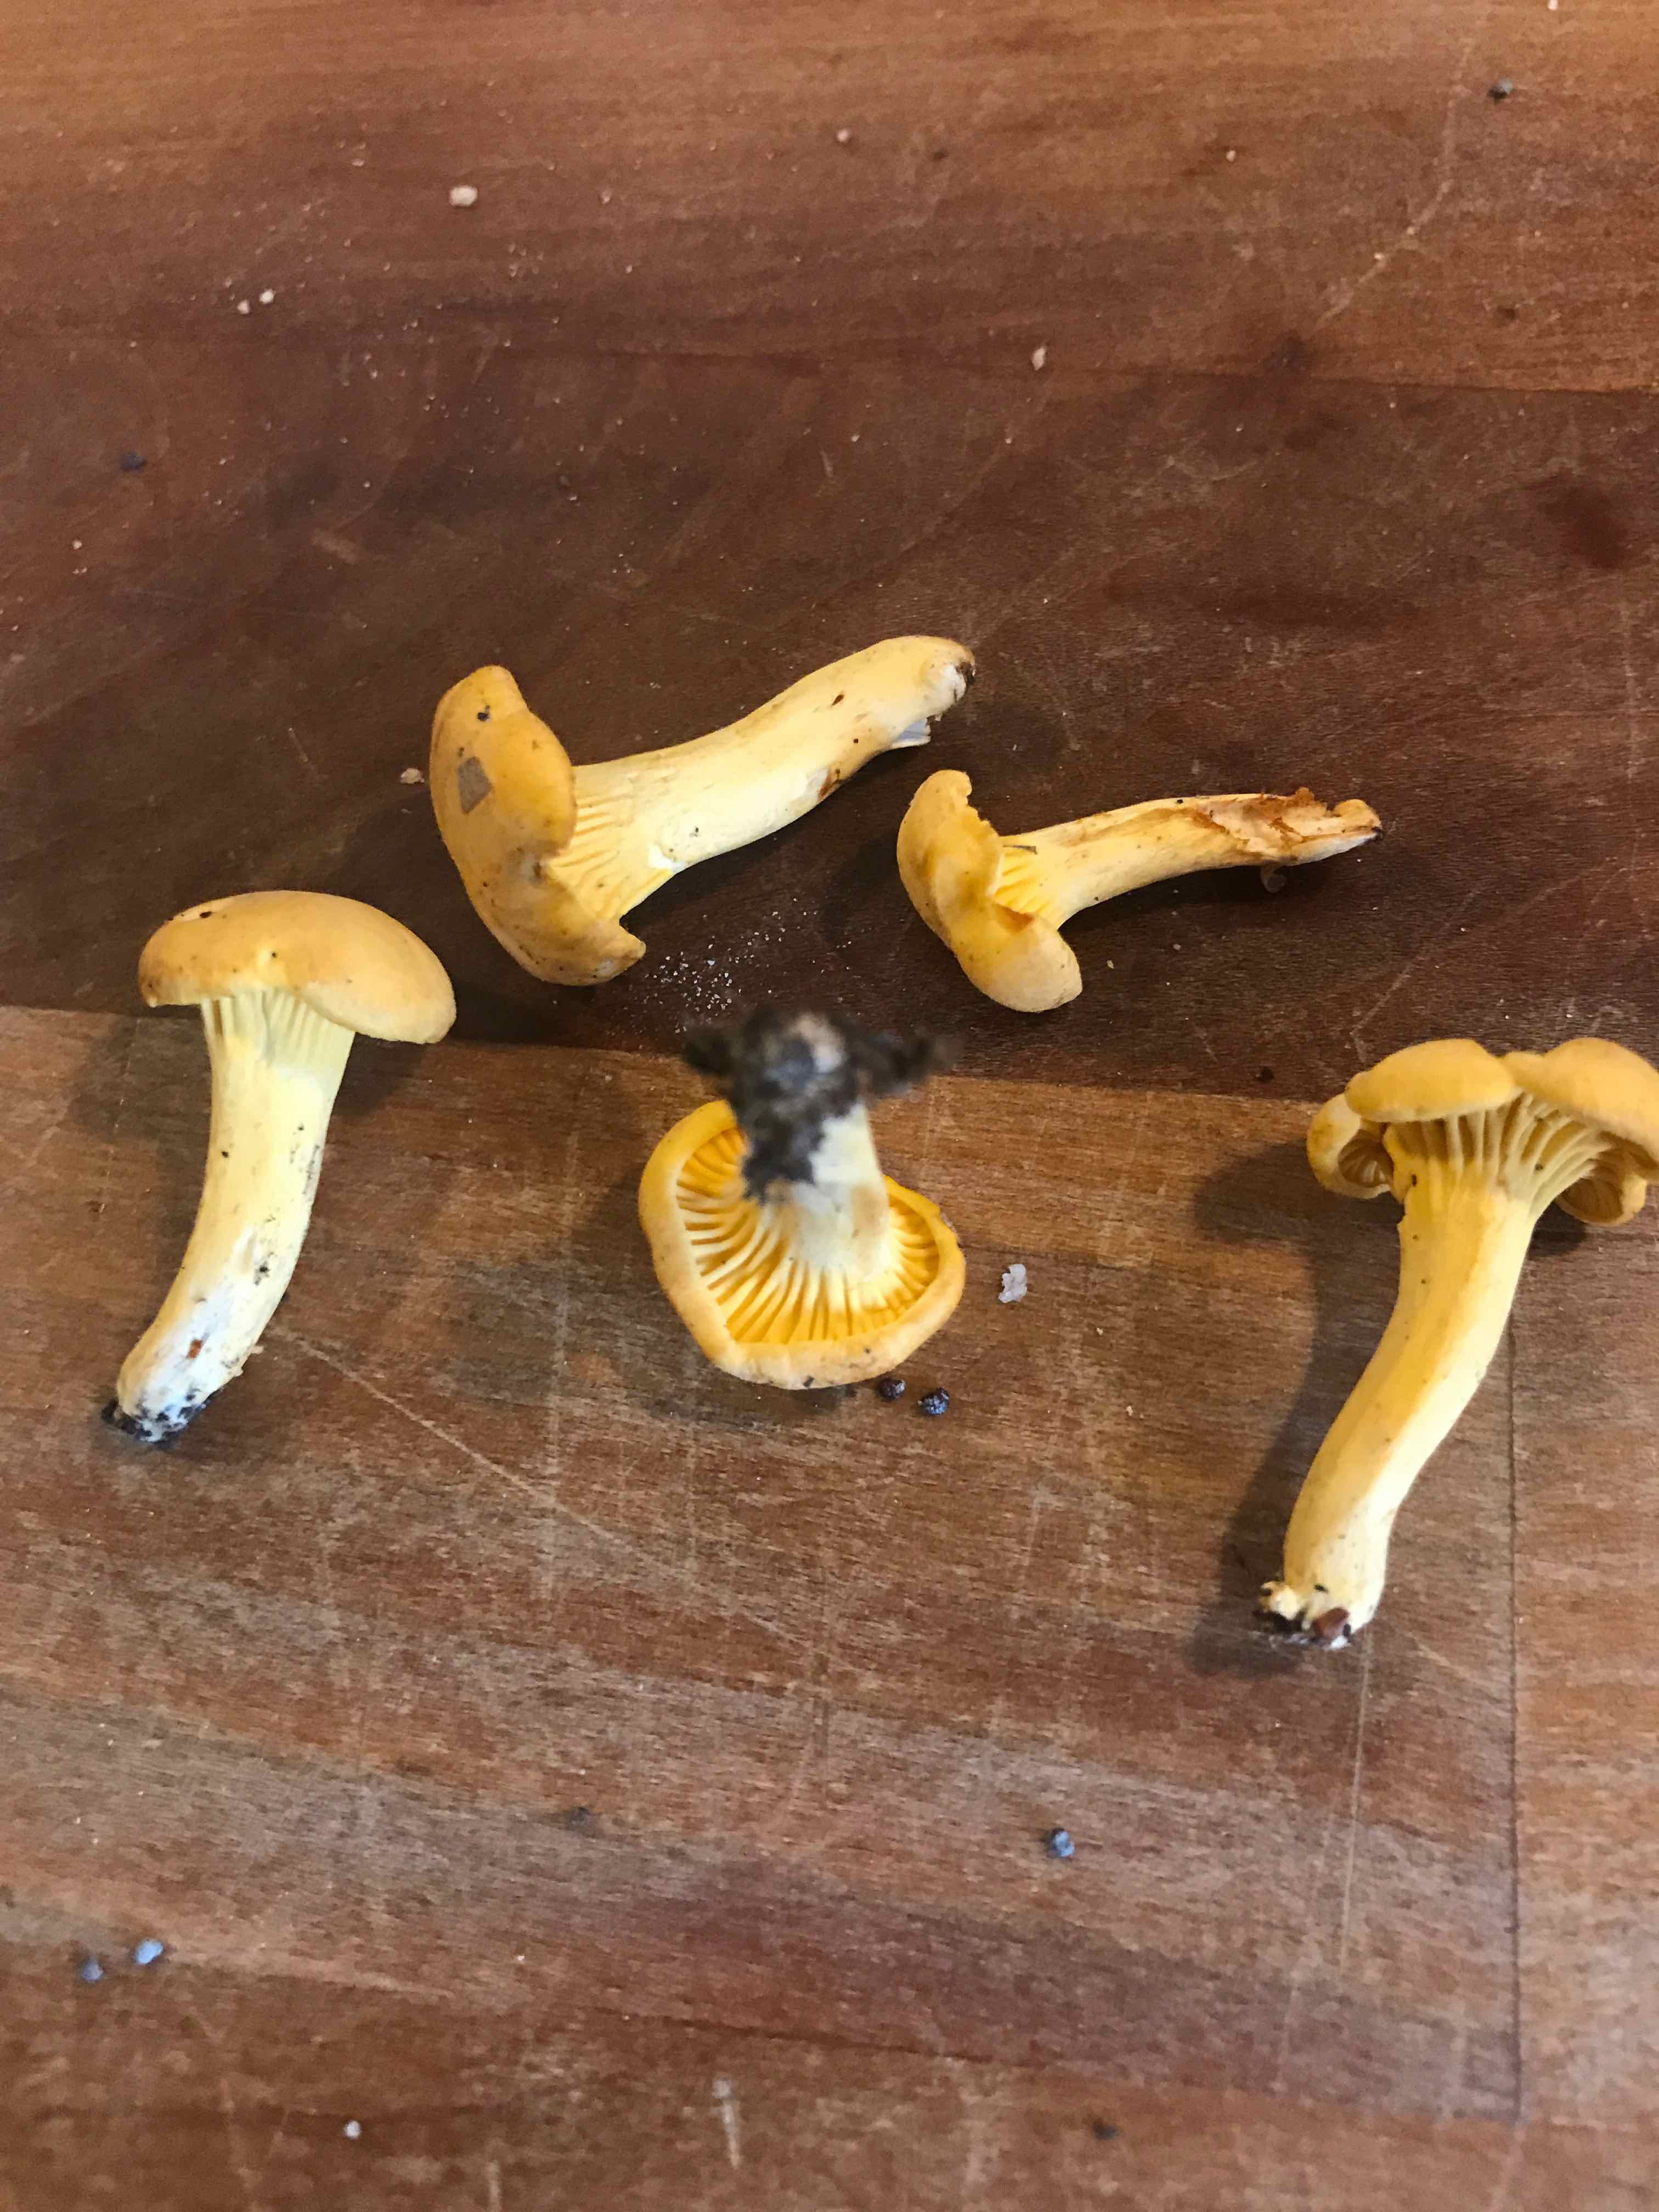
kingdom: Fungi
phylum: Basidiomycota
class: Agaricomycetes
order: Cantharellales
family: Hydnaceae
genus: Cantharellus
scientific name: Cantharellus cibarius
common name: almindelig kantarel
